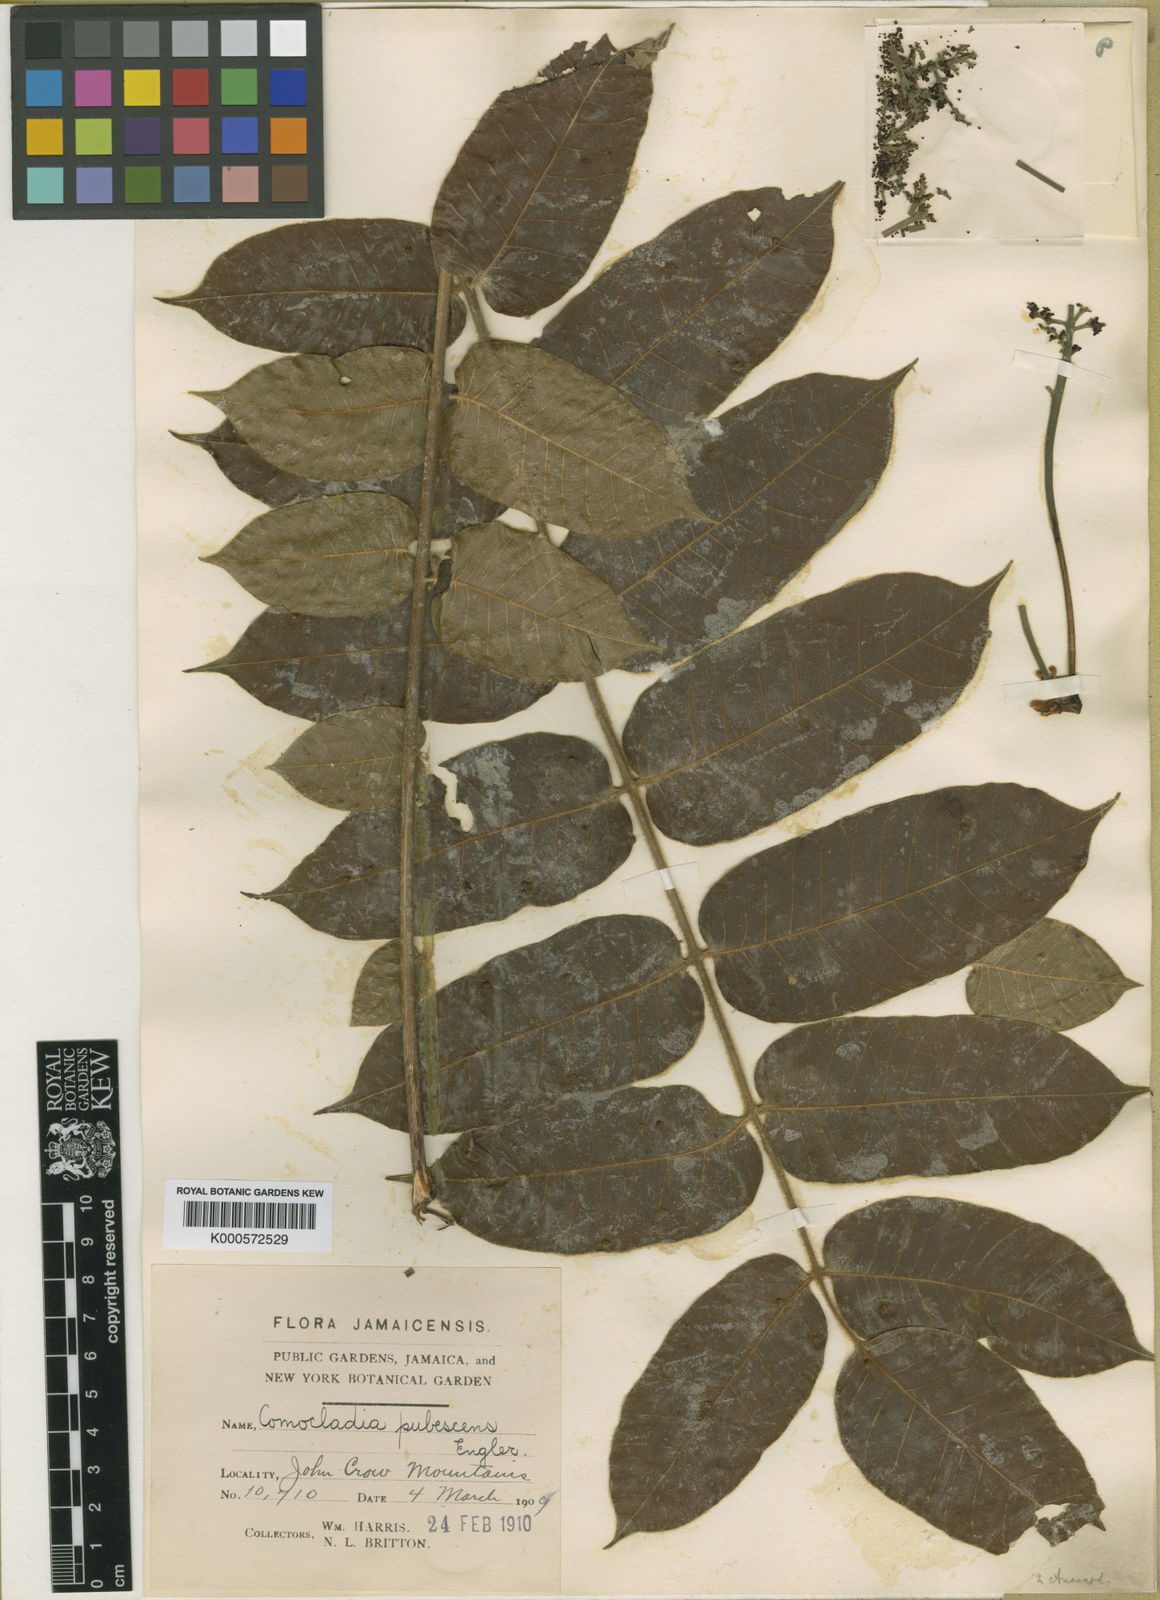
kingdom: Plantae
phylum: Tracheophyta
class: Magnoliopsida
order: Sapindales
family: Anacardiaceae
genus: Comocladia
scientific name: Comocladia pubescens
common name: Maiden plume
